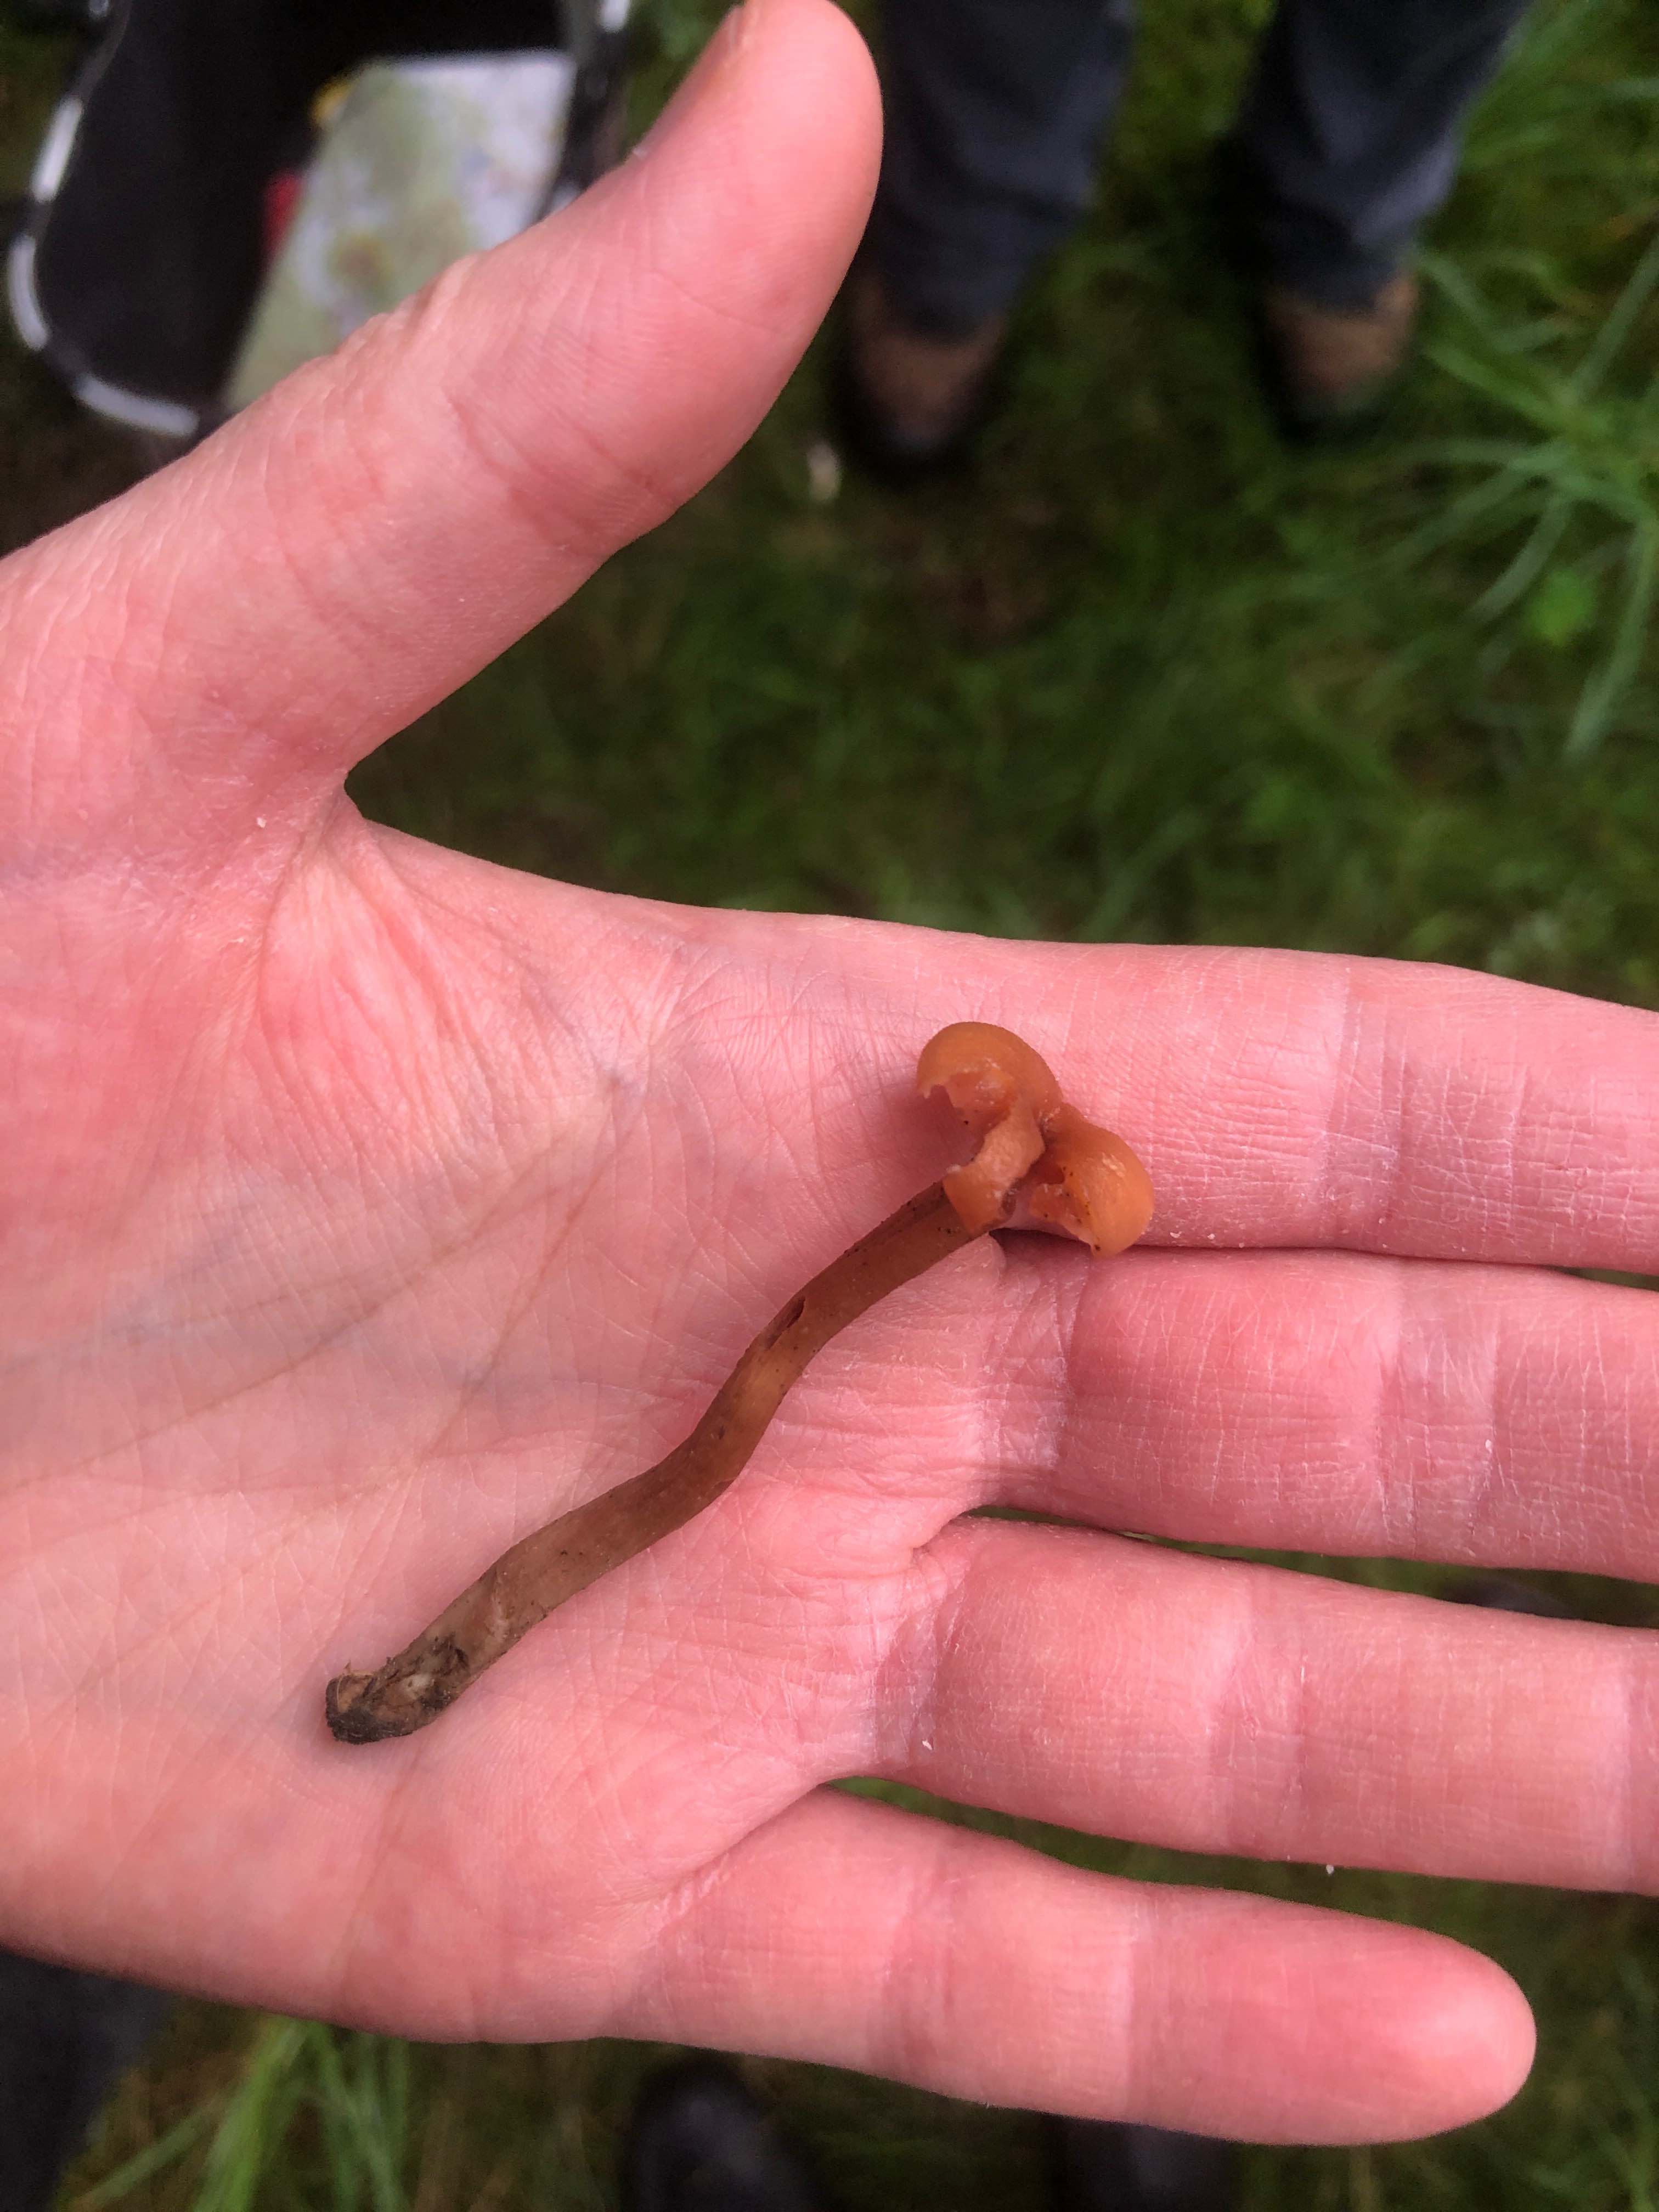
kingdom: Fungi
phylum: Basidiomycota
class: Agaricomycetes
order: Agaricales
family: Hydnangiaceae
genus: Laccaria
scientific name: Laccaria laccata
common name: rød ametysthat
